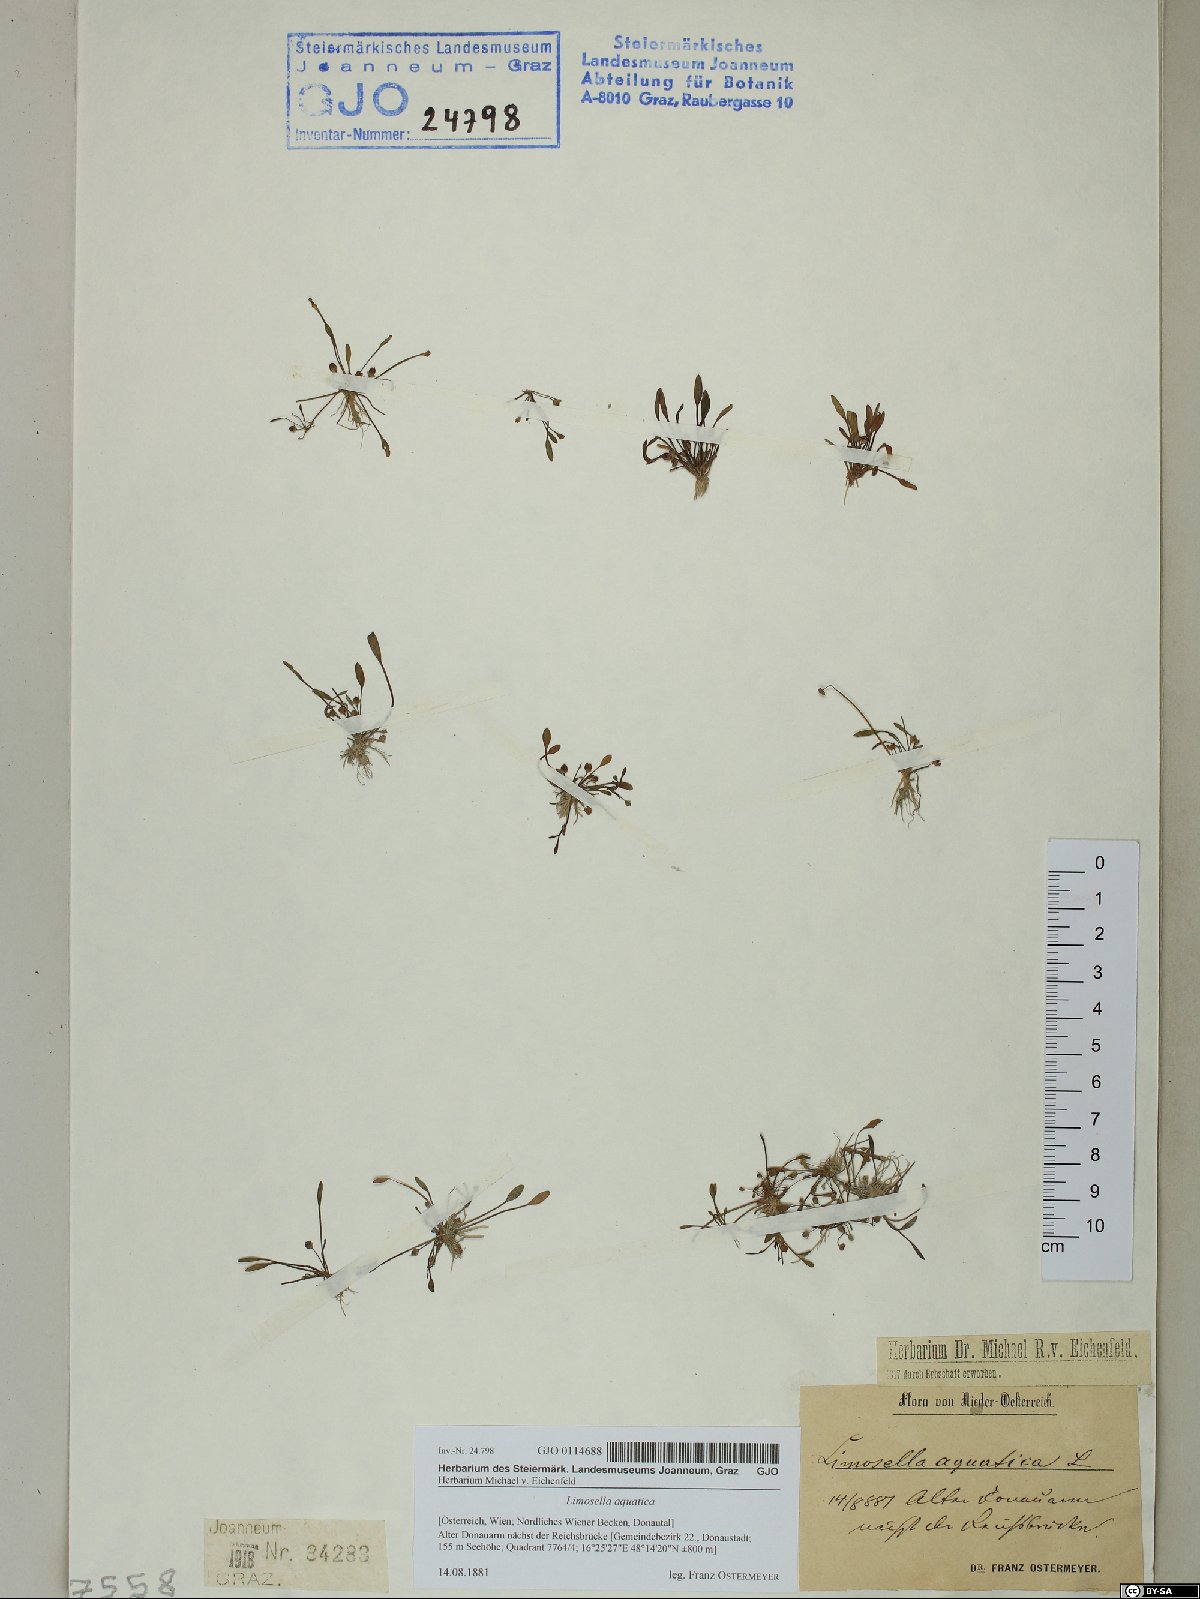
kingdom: Plantae
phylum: Tracheophyta
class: Magnoliopsida
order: Lamiales
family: Scrophulariaceae
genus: Limosella
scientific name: Limosella aquatica
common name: Mudwort
